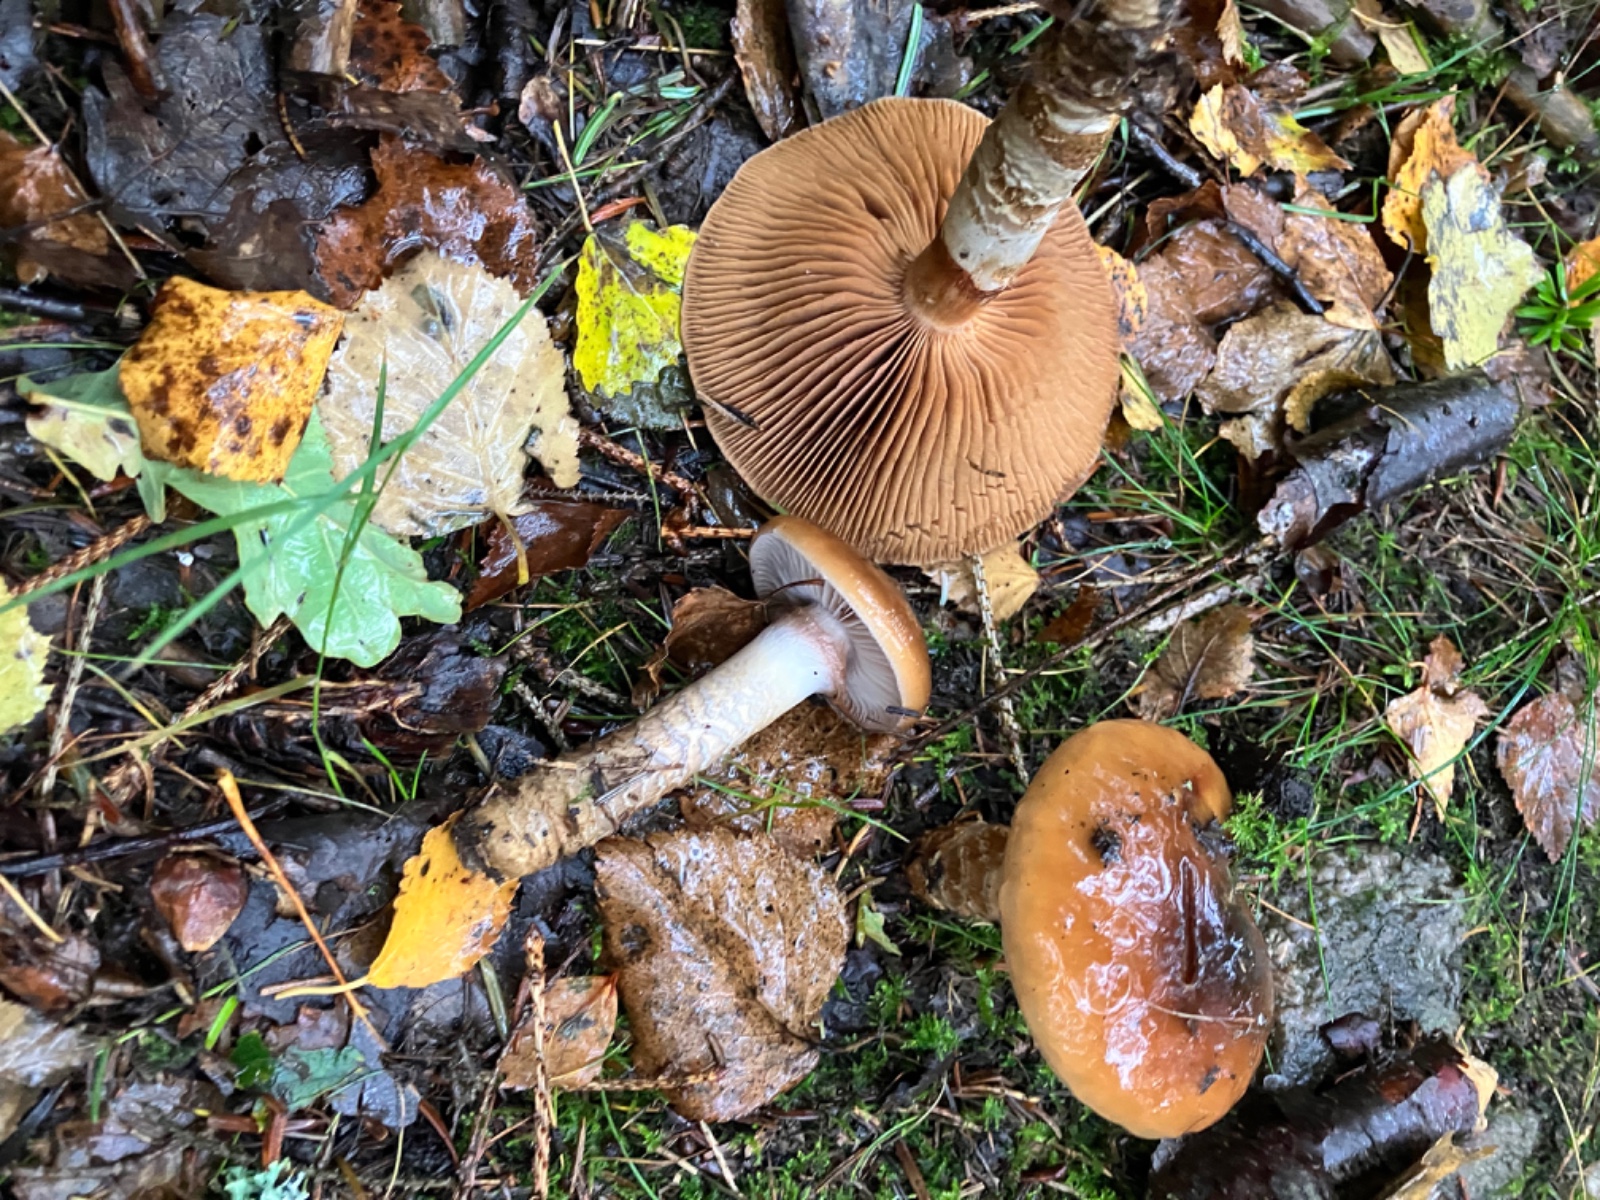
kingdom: Fungi
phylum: Basidiomycota
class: Agaricomycetes
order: Agaricales
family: Cortinariaceae
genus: Cortinarius
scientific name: Cortinarius trivialis
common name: Girdled webcap
